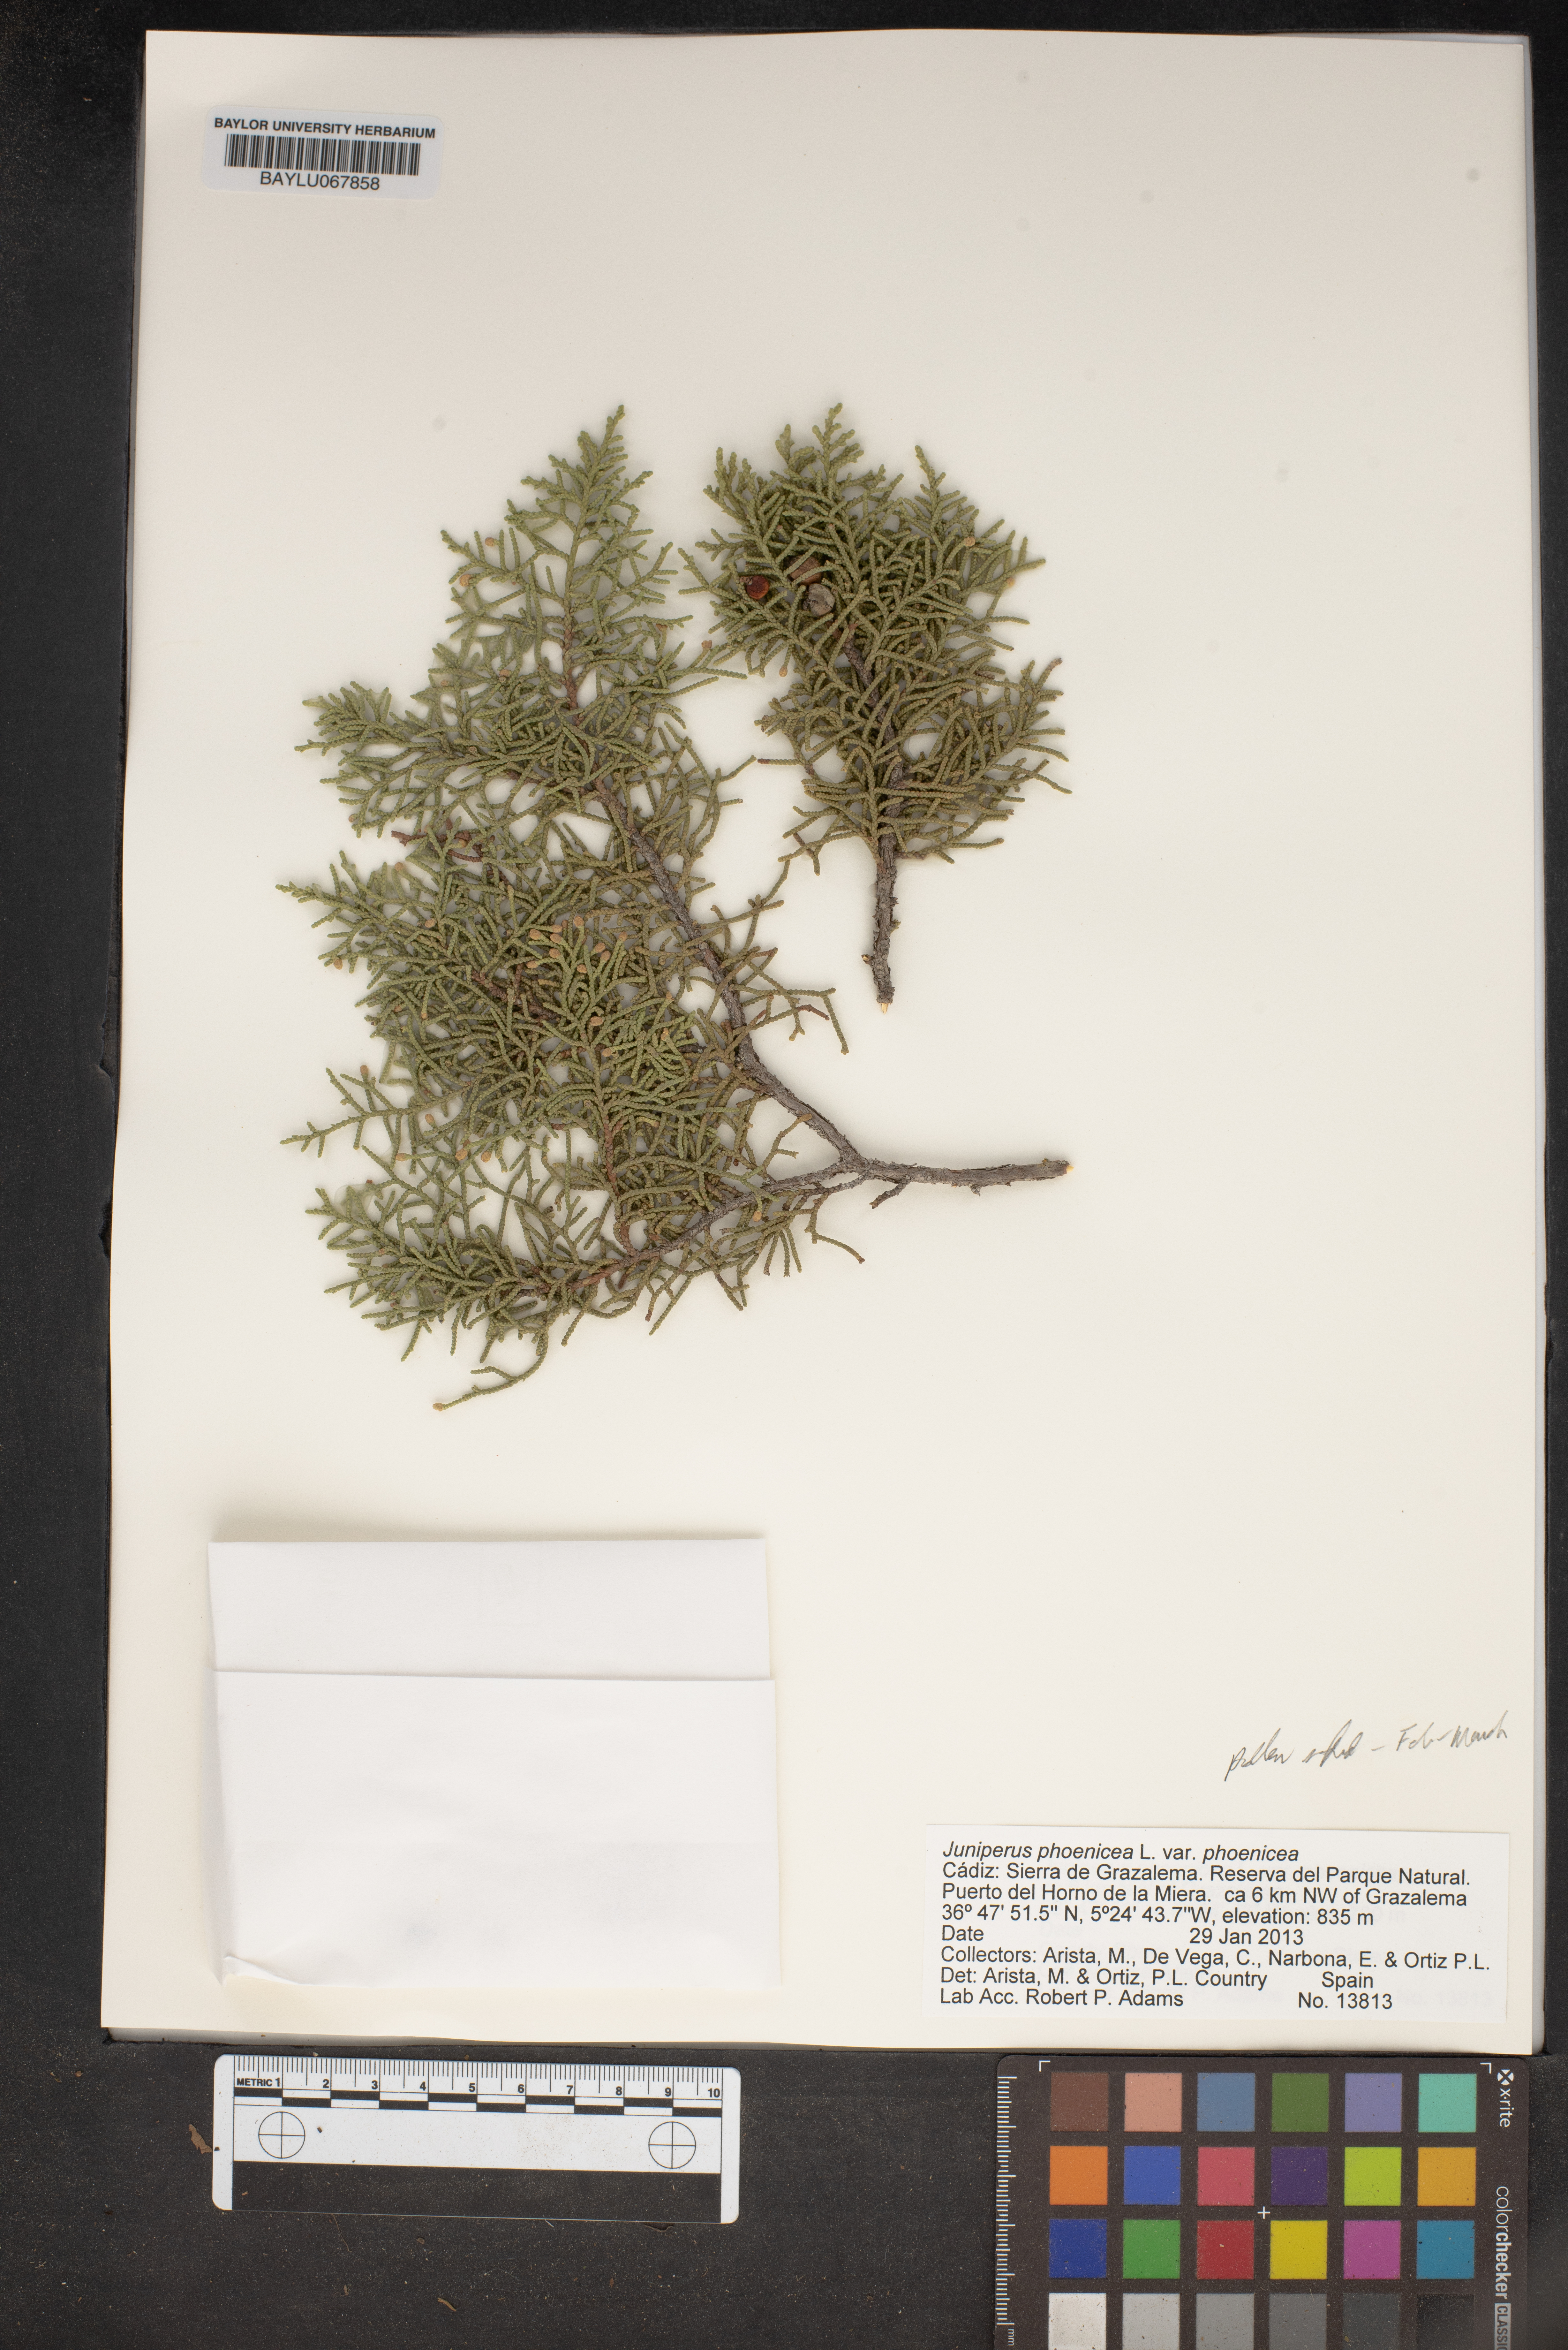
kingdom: Plantae
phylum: Tracheophyta
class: Pinopsida
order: Pinales
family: Cupressaceae
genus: Juniperus
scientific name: Juniperus phoenicea
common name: Phoenician juniper
